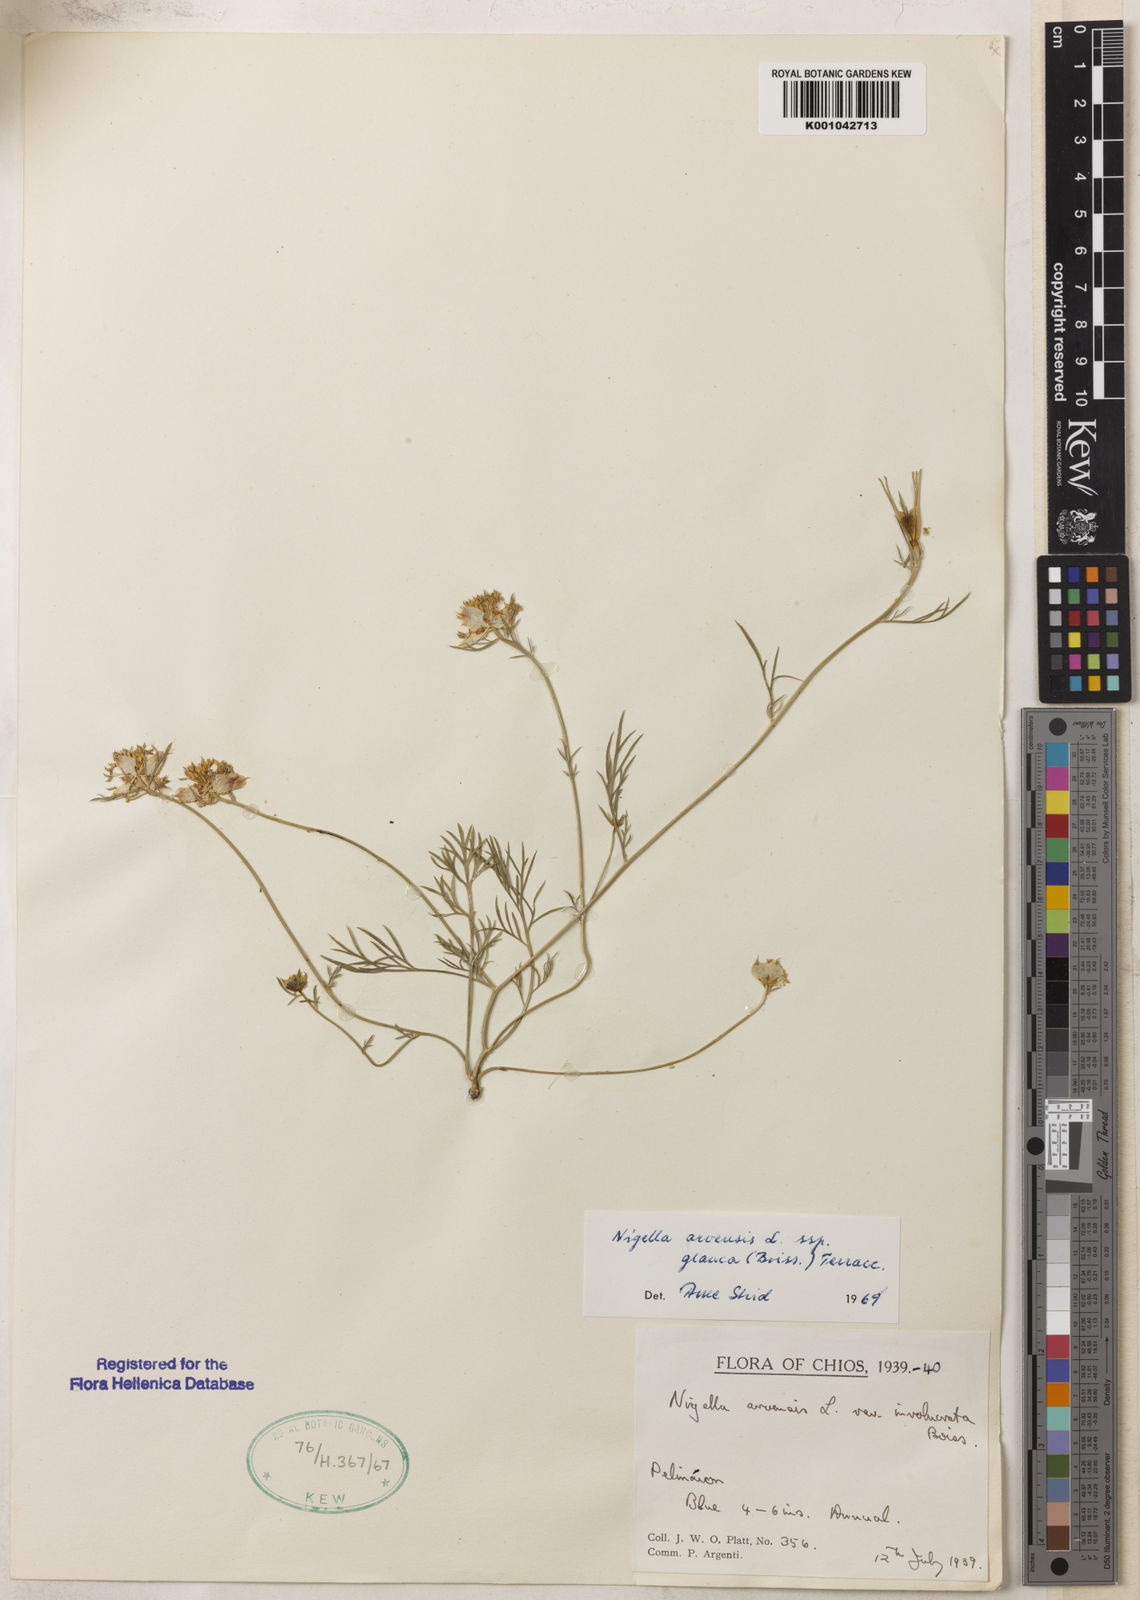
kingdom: Plantae
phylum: Tracheophyta
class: Magnoliopsida
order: Ranunculales
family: Ranunculaceae
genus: Nigella
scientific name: Nigella arvensis
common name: Wild fennel-flower
